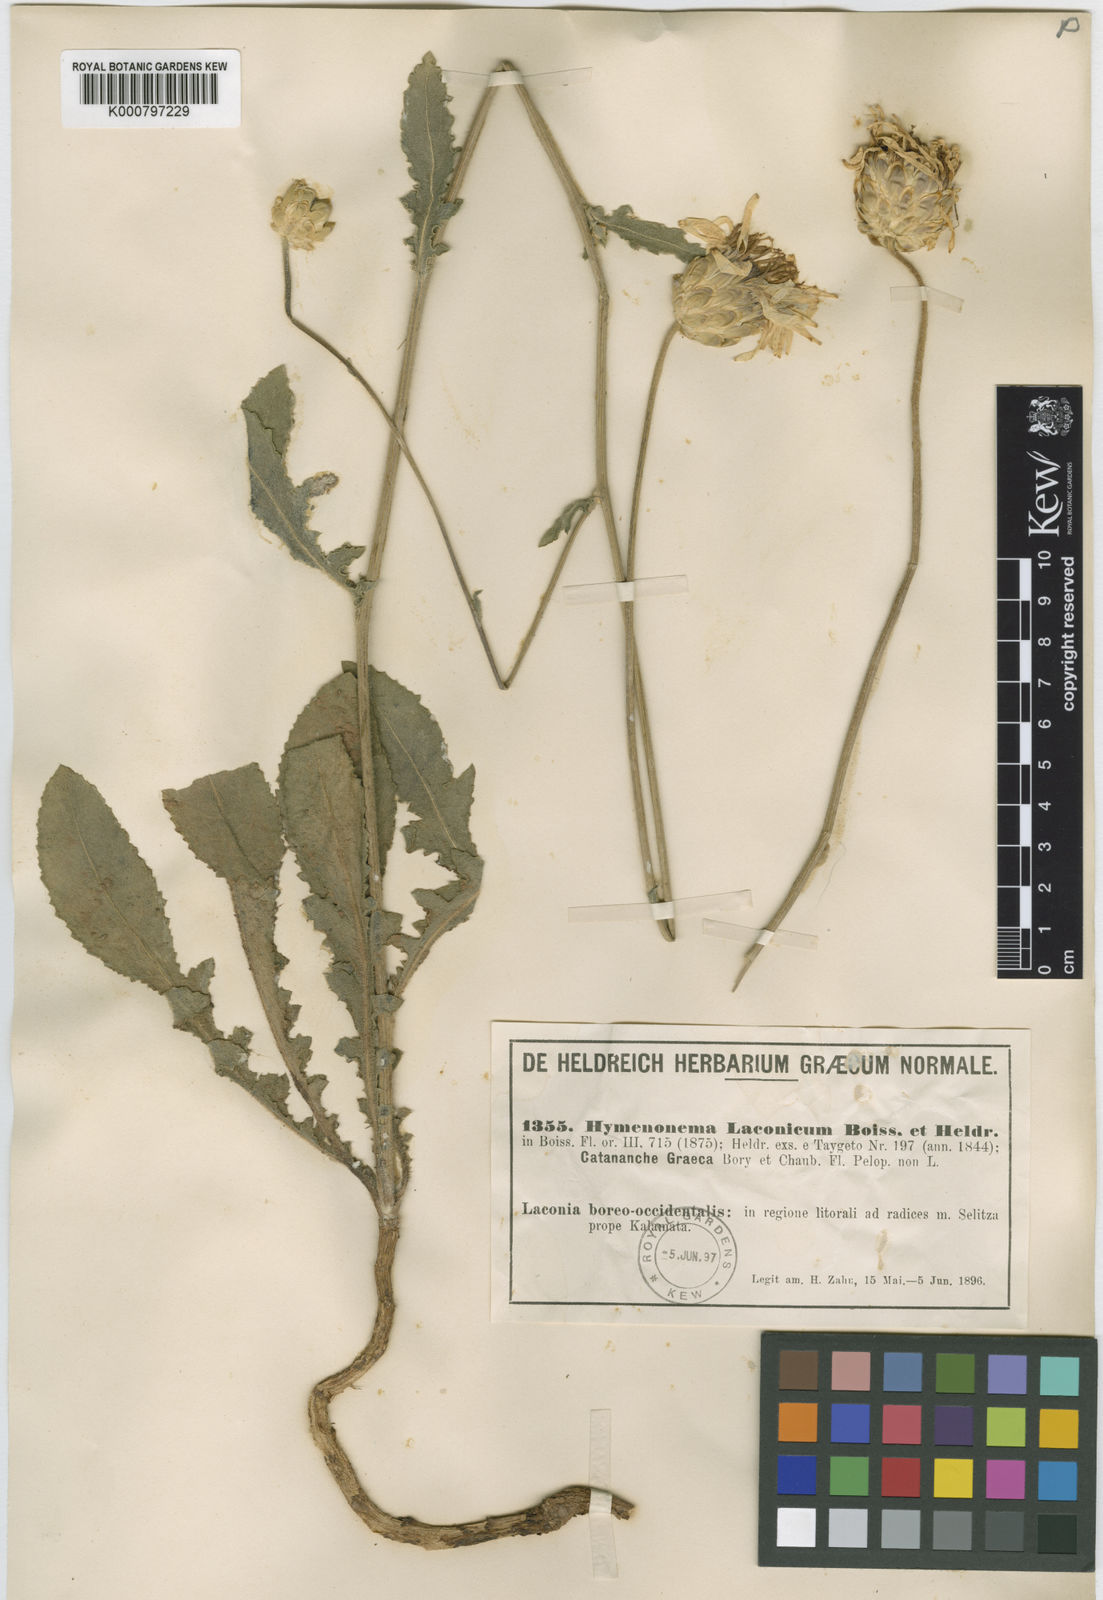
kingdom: Plantae
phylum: Tracheophyta
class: Magnoliopsida
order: Asterales
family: Asteraceae
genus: Hymenonema
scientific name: Hymenonema laconicum
